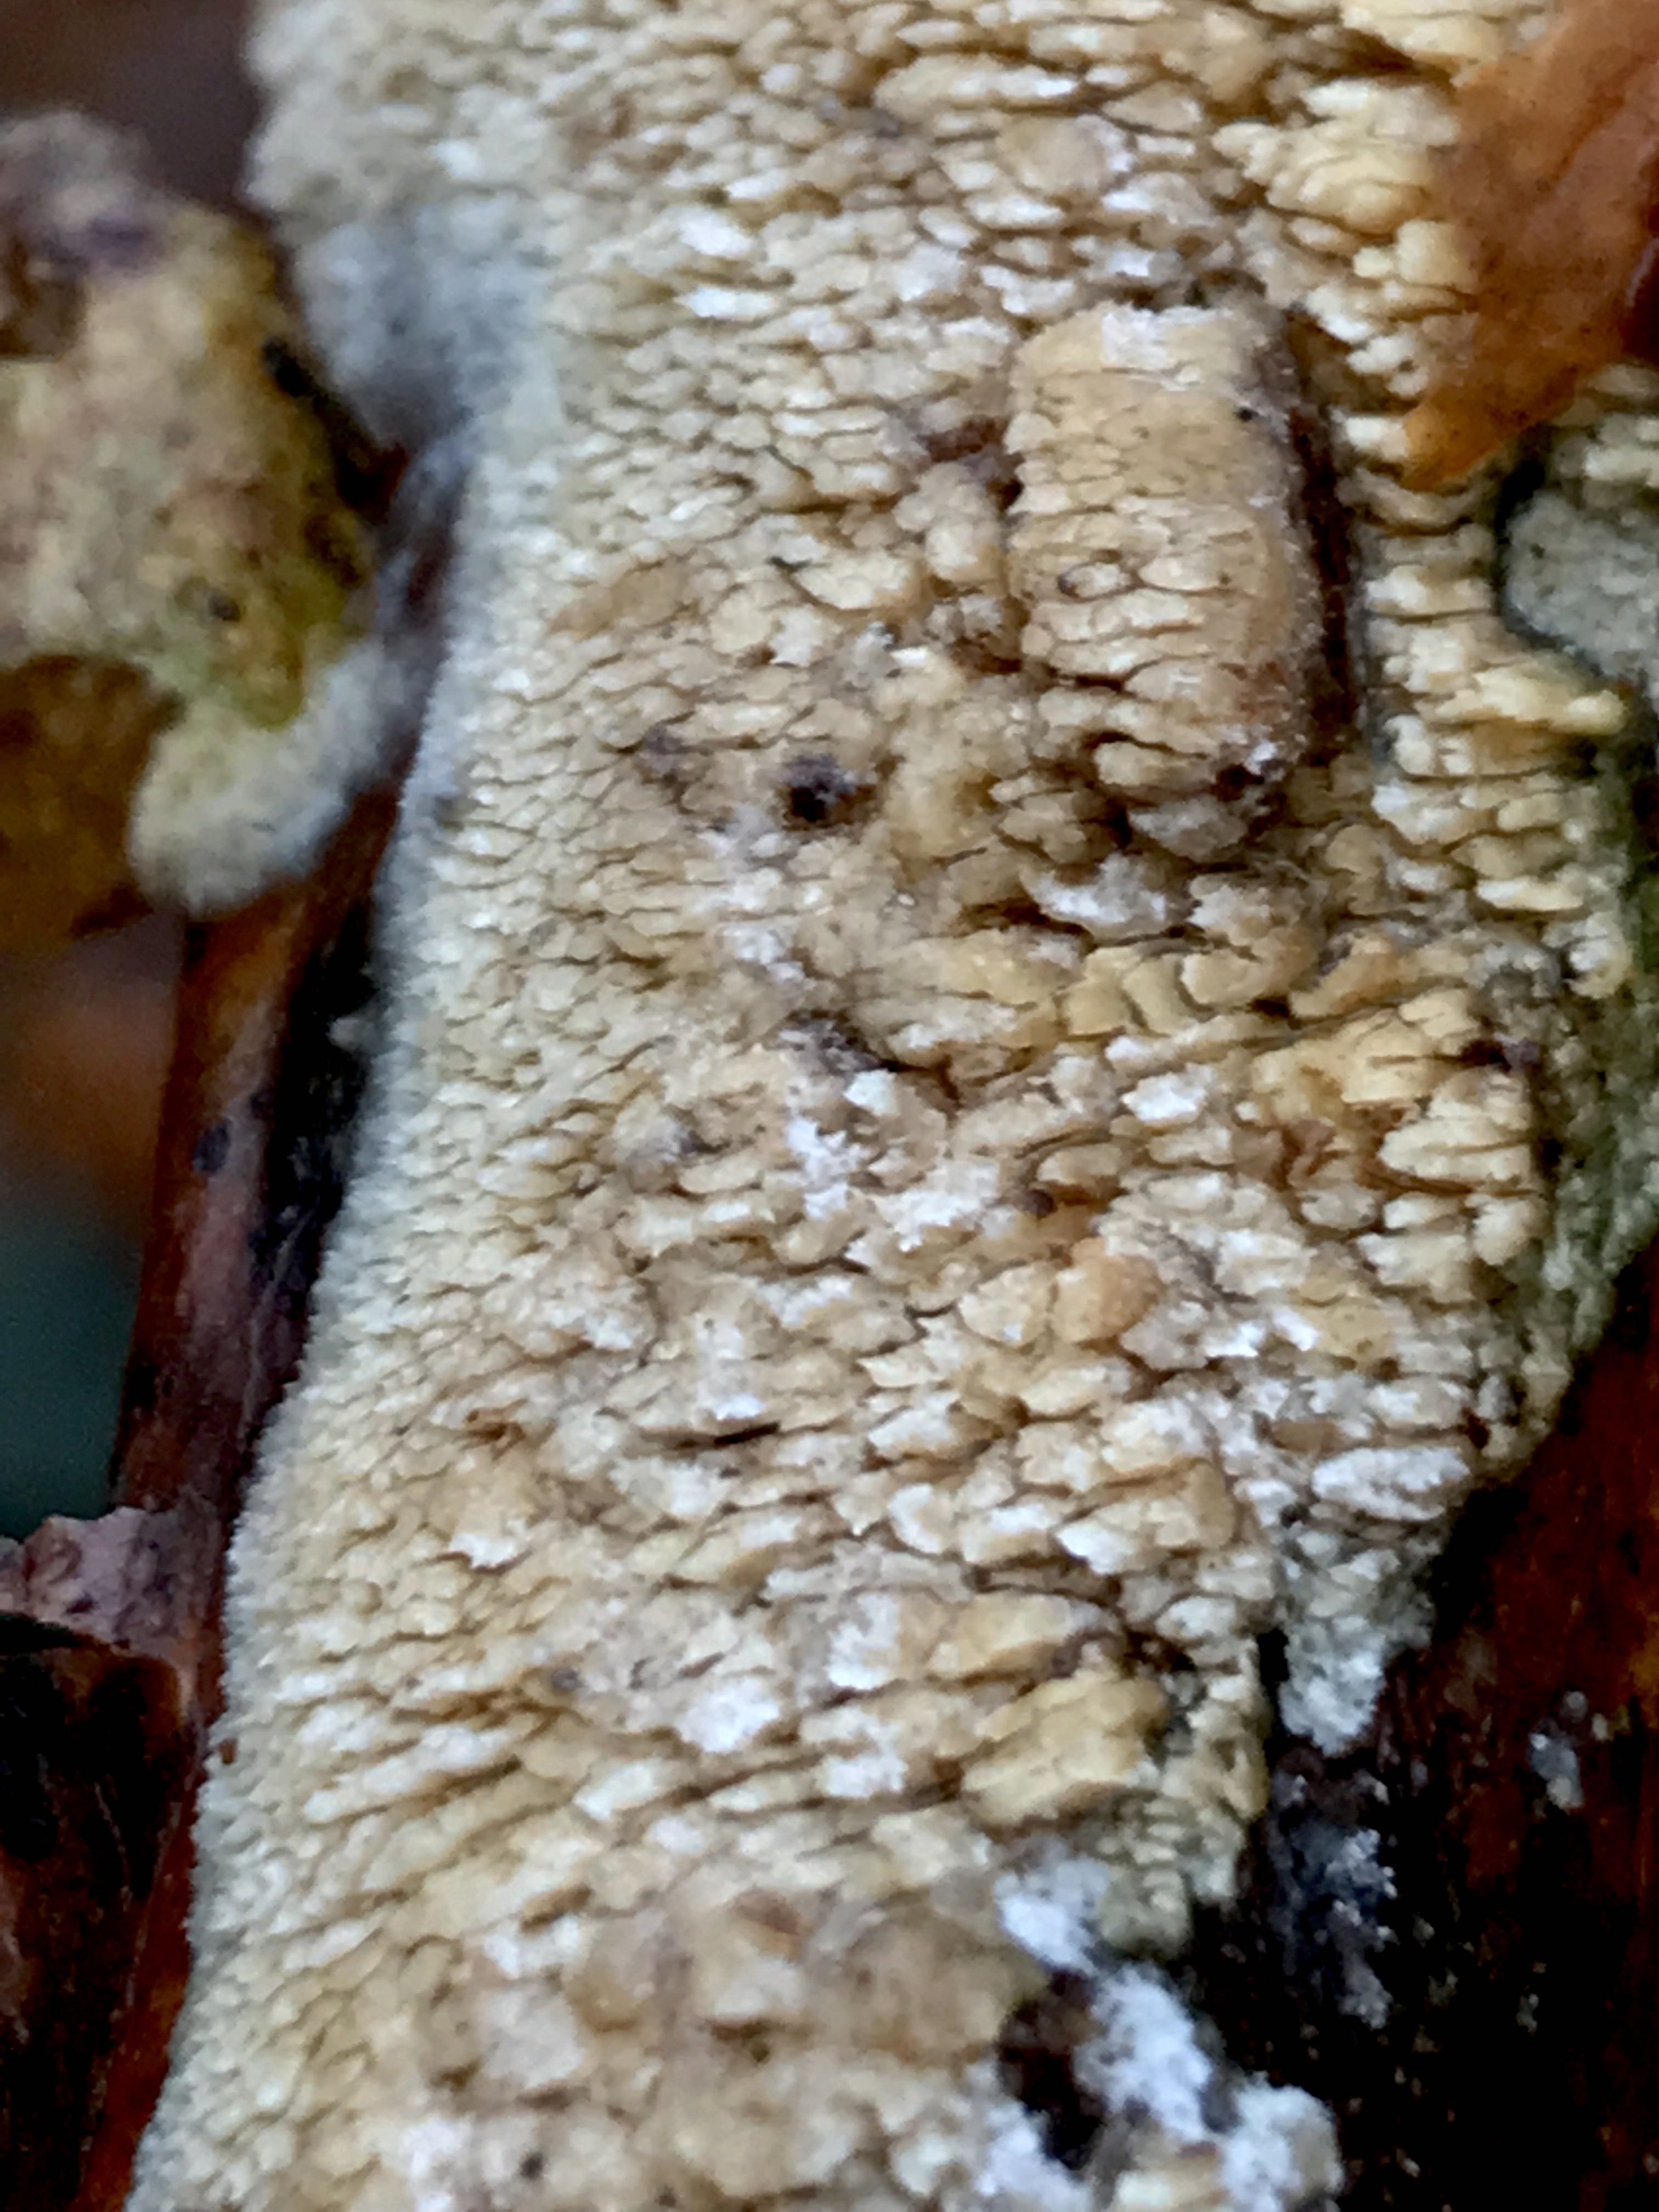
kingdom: Fungi
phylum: Basidiomycota
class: Agaricomycetes
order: Hymenochaetales
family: Schizoporaceae
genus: Schizopora
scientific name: Schizopora paradoxa
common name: hvid tandsvamp
